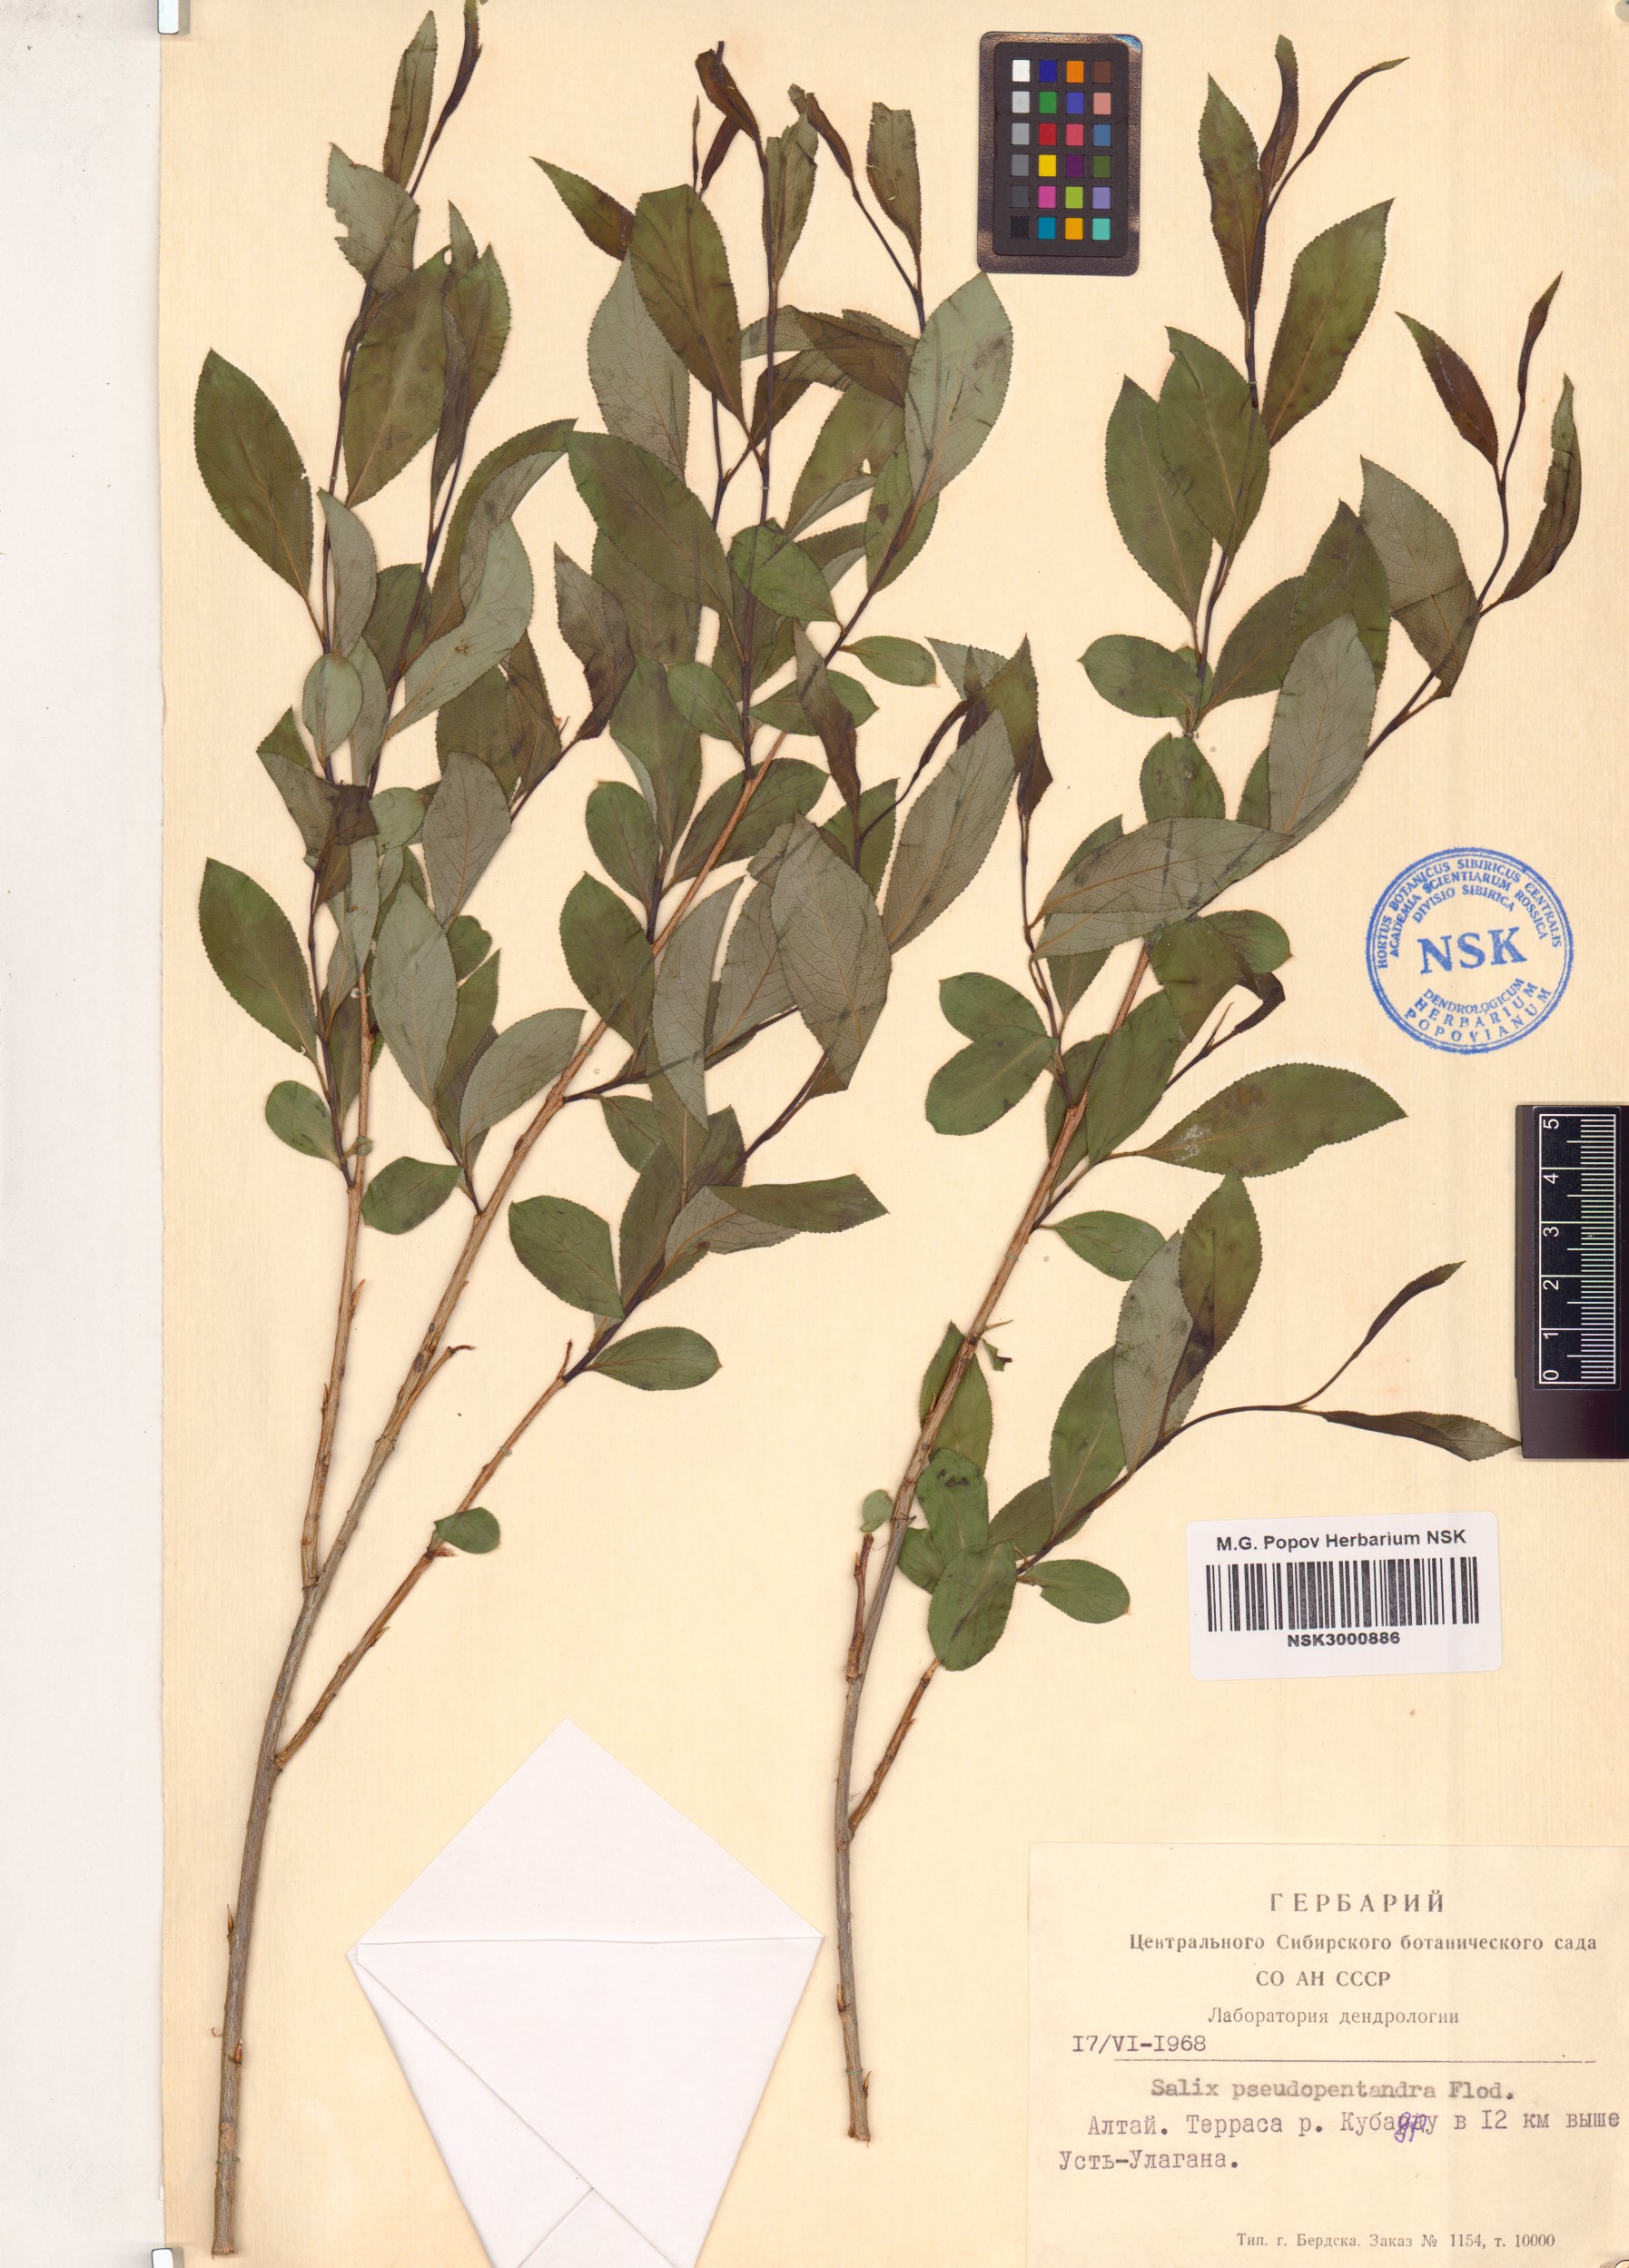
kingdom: Plantae
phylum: Tracheophyta
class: Magnoliopsida
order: Malpighiales
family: Salicaceae
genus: Salix
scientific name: Salix pseudopentandra
